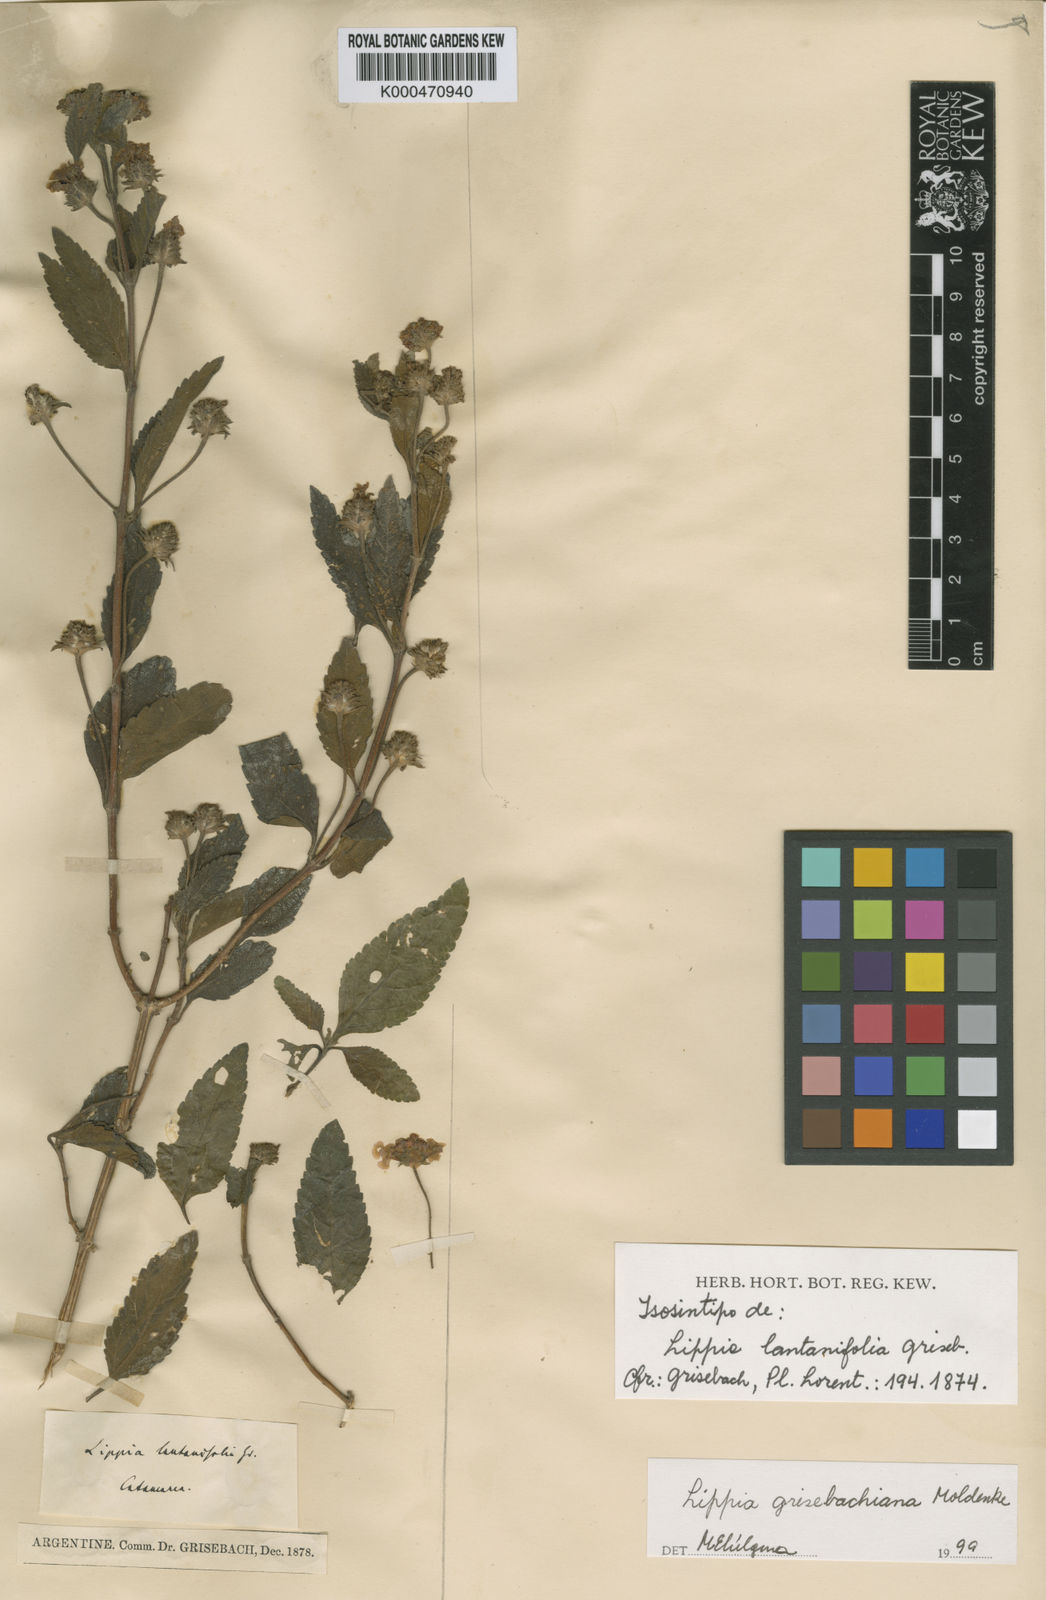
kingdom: Plantae
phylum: Tracheophyta
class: Magnoliopsida
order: Lamiales
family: Verbenaceae
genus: Lippia
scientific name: Lippia brachypoda
